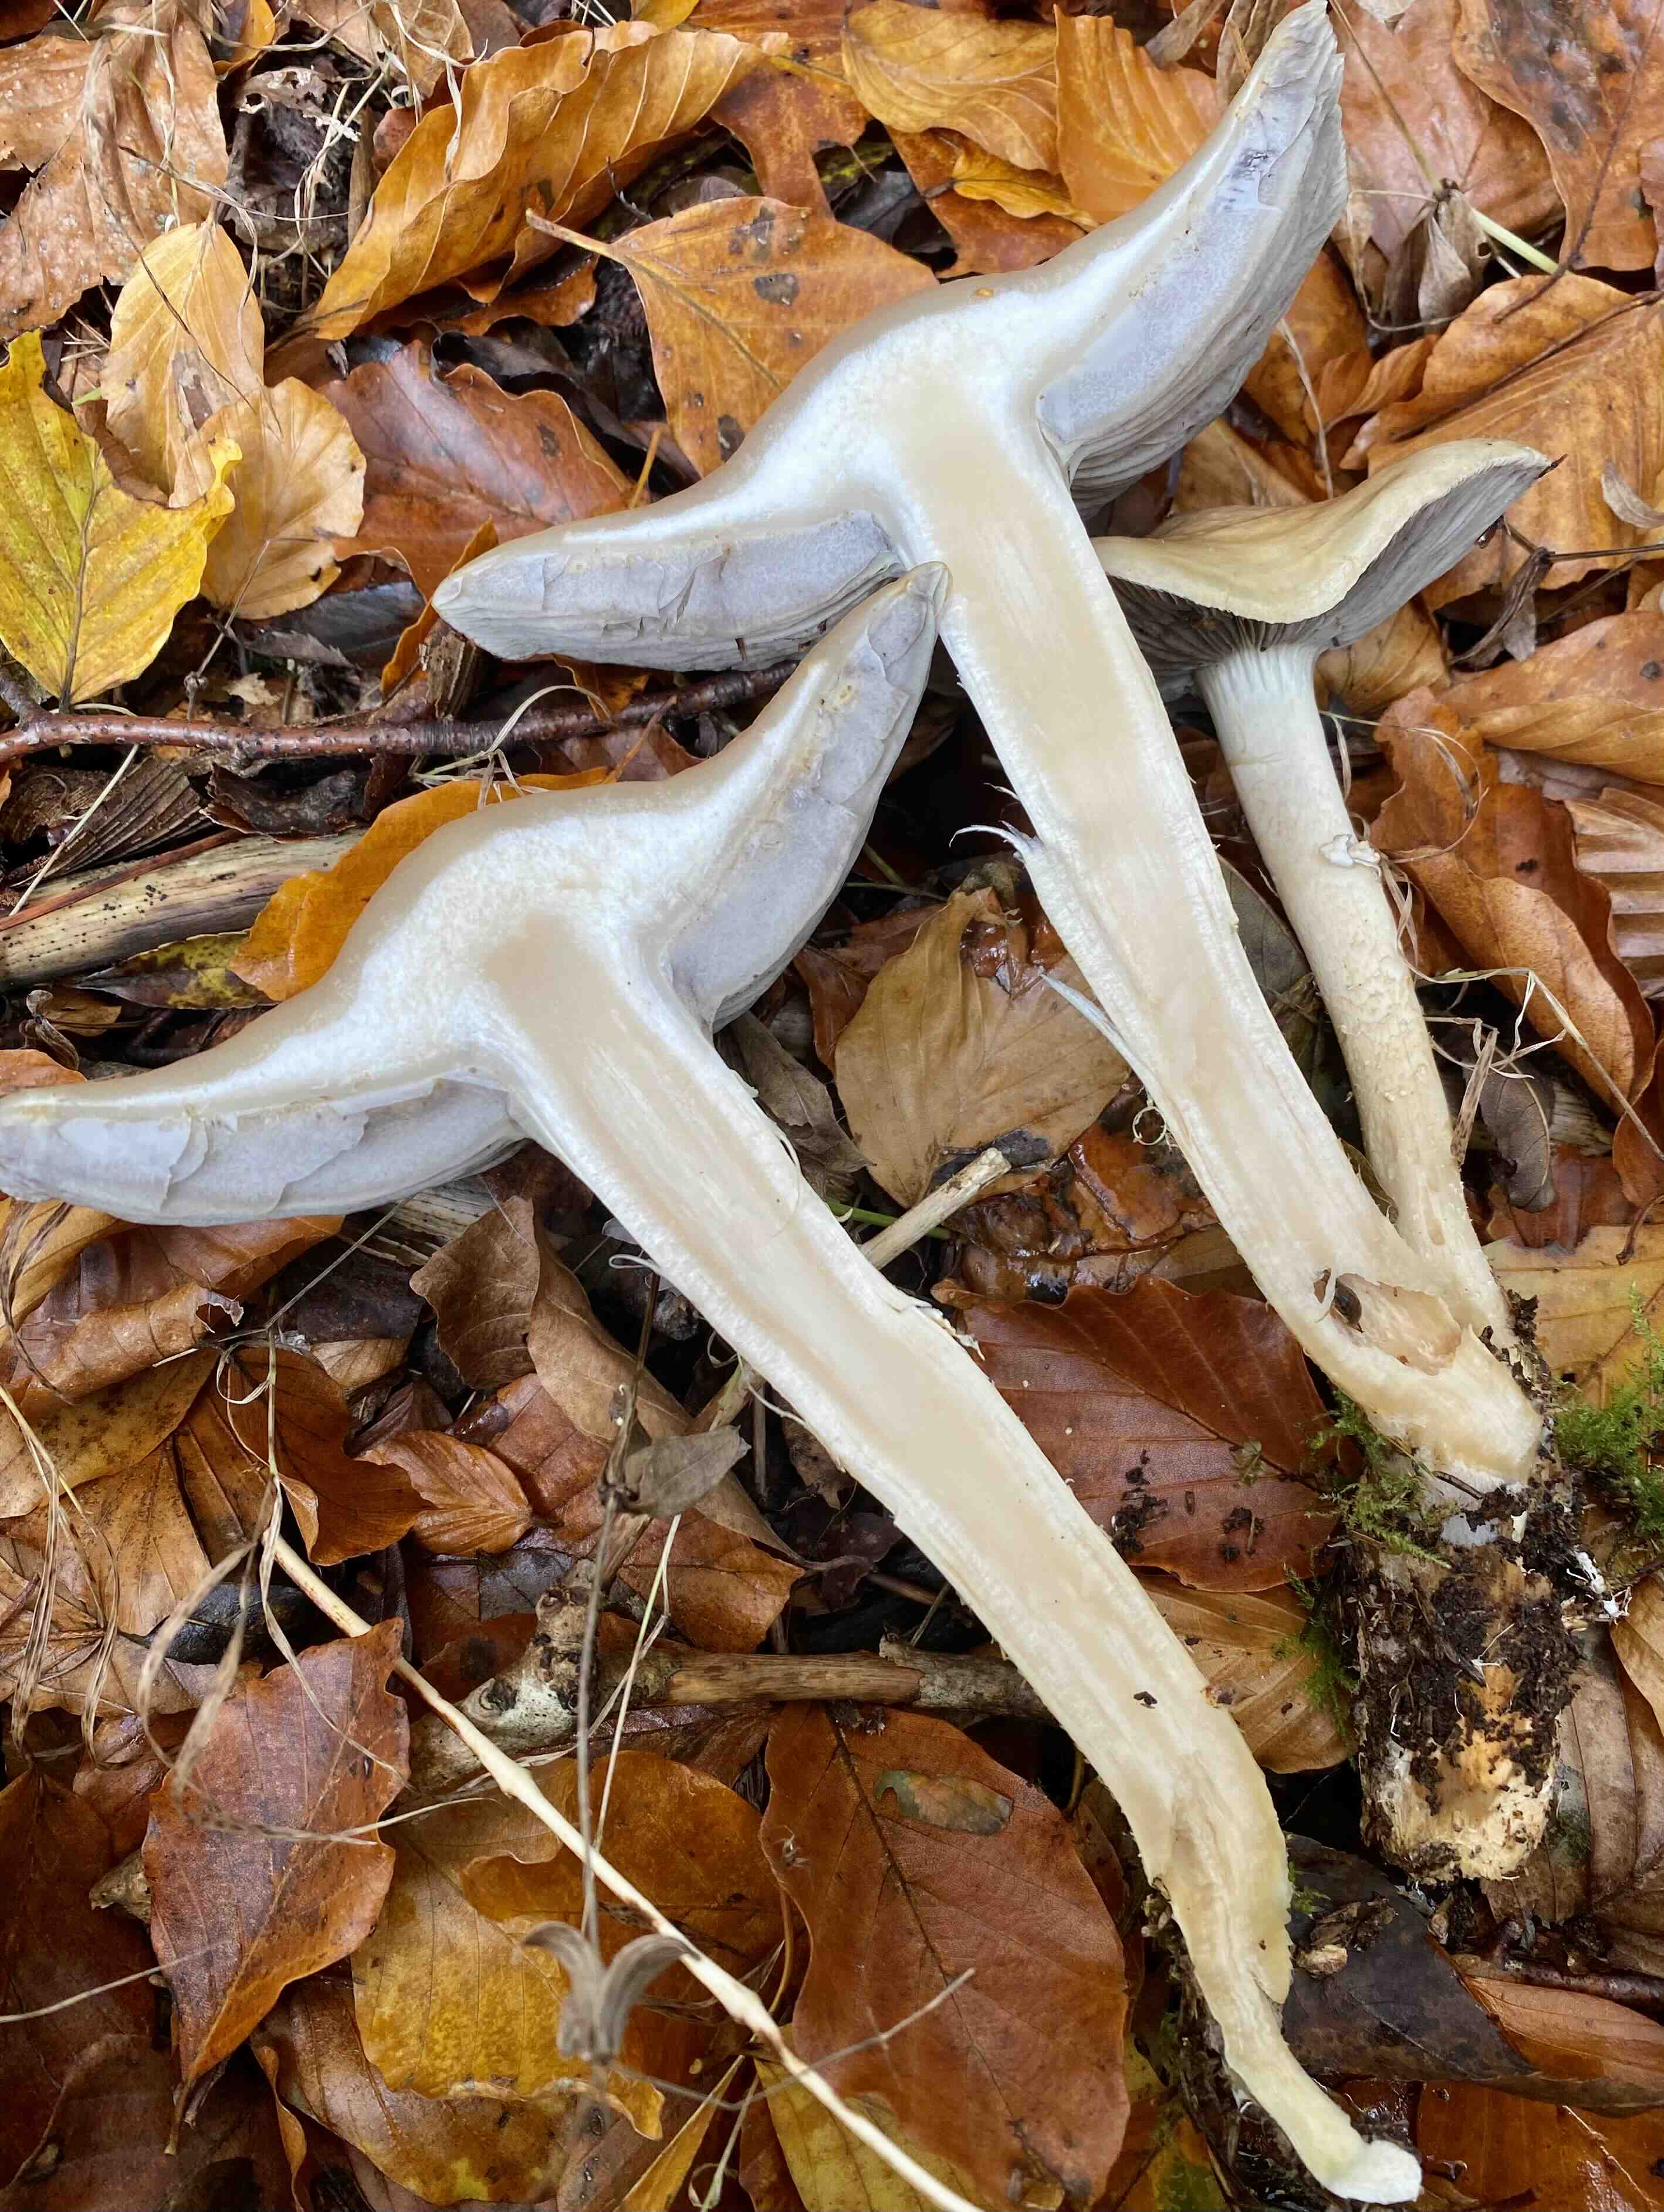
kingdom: Fungi
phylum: Basidiomycota
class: Agaricomycetes
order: Agaricales
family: Strophariaceae
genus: Stropharia
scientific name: Stropharia hornemannii
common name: nordisk bredblad
